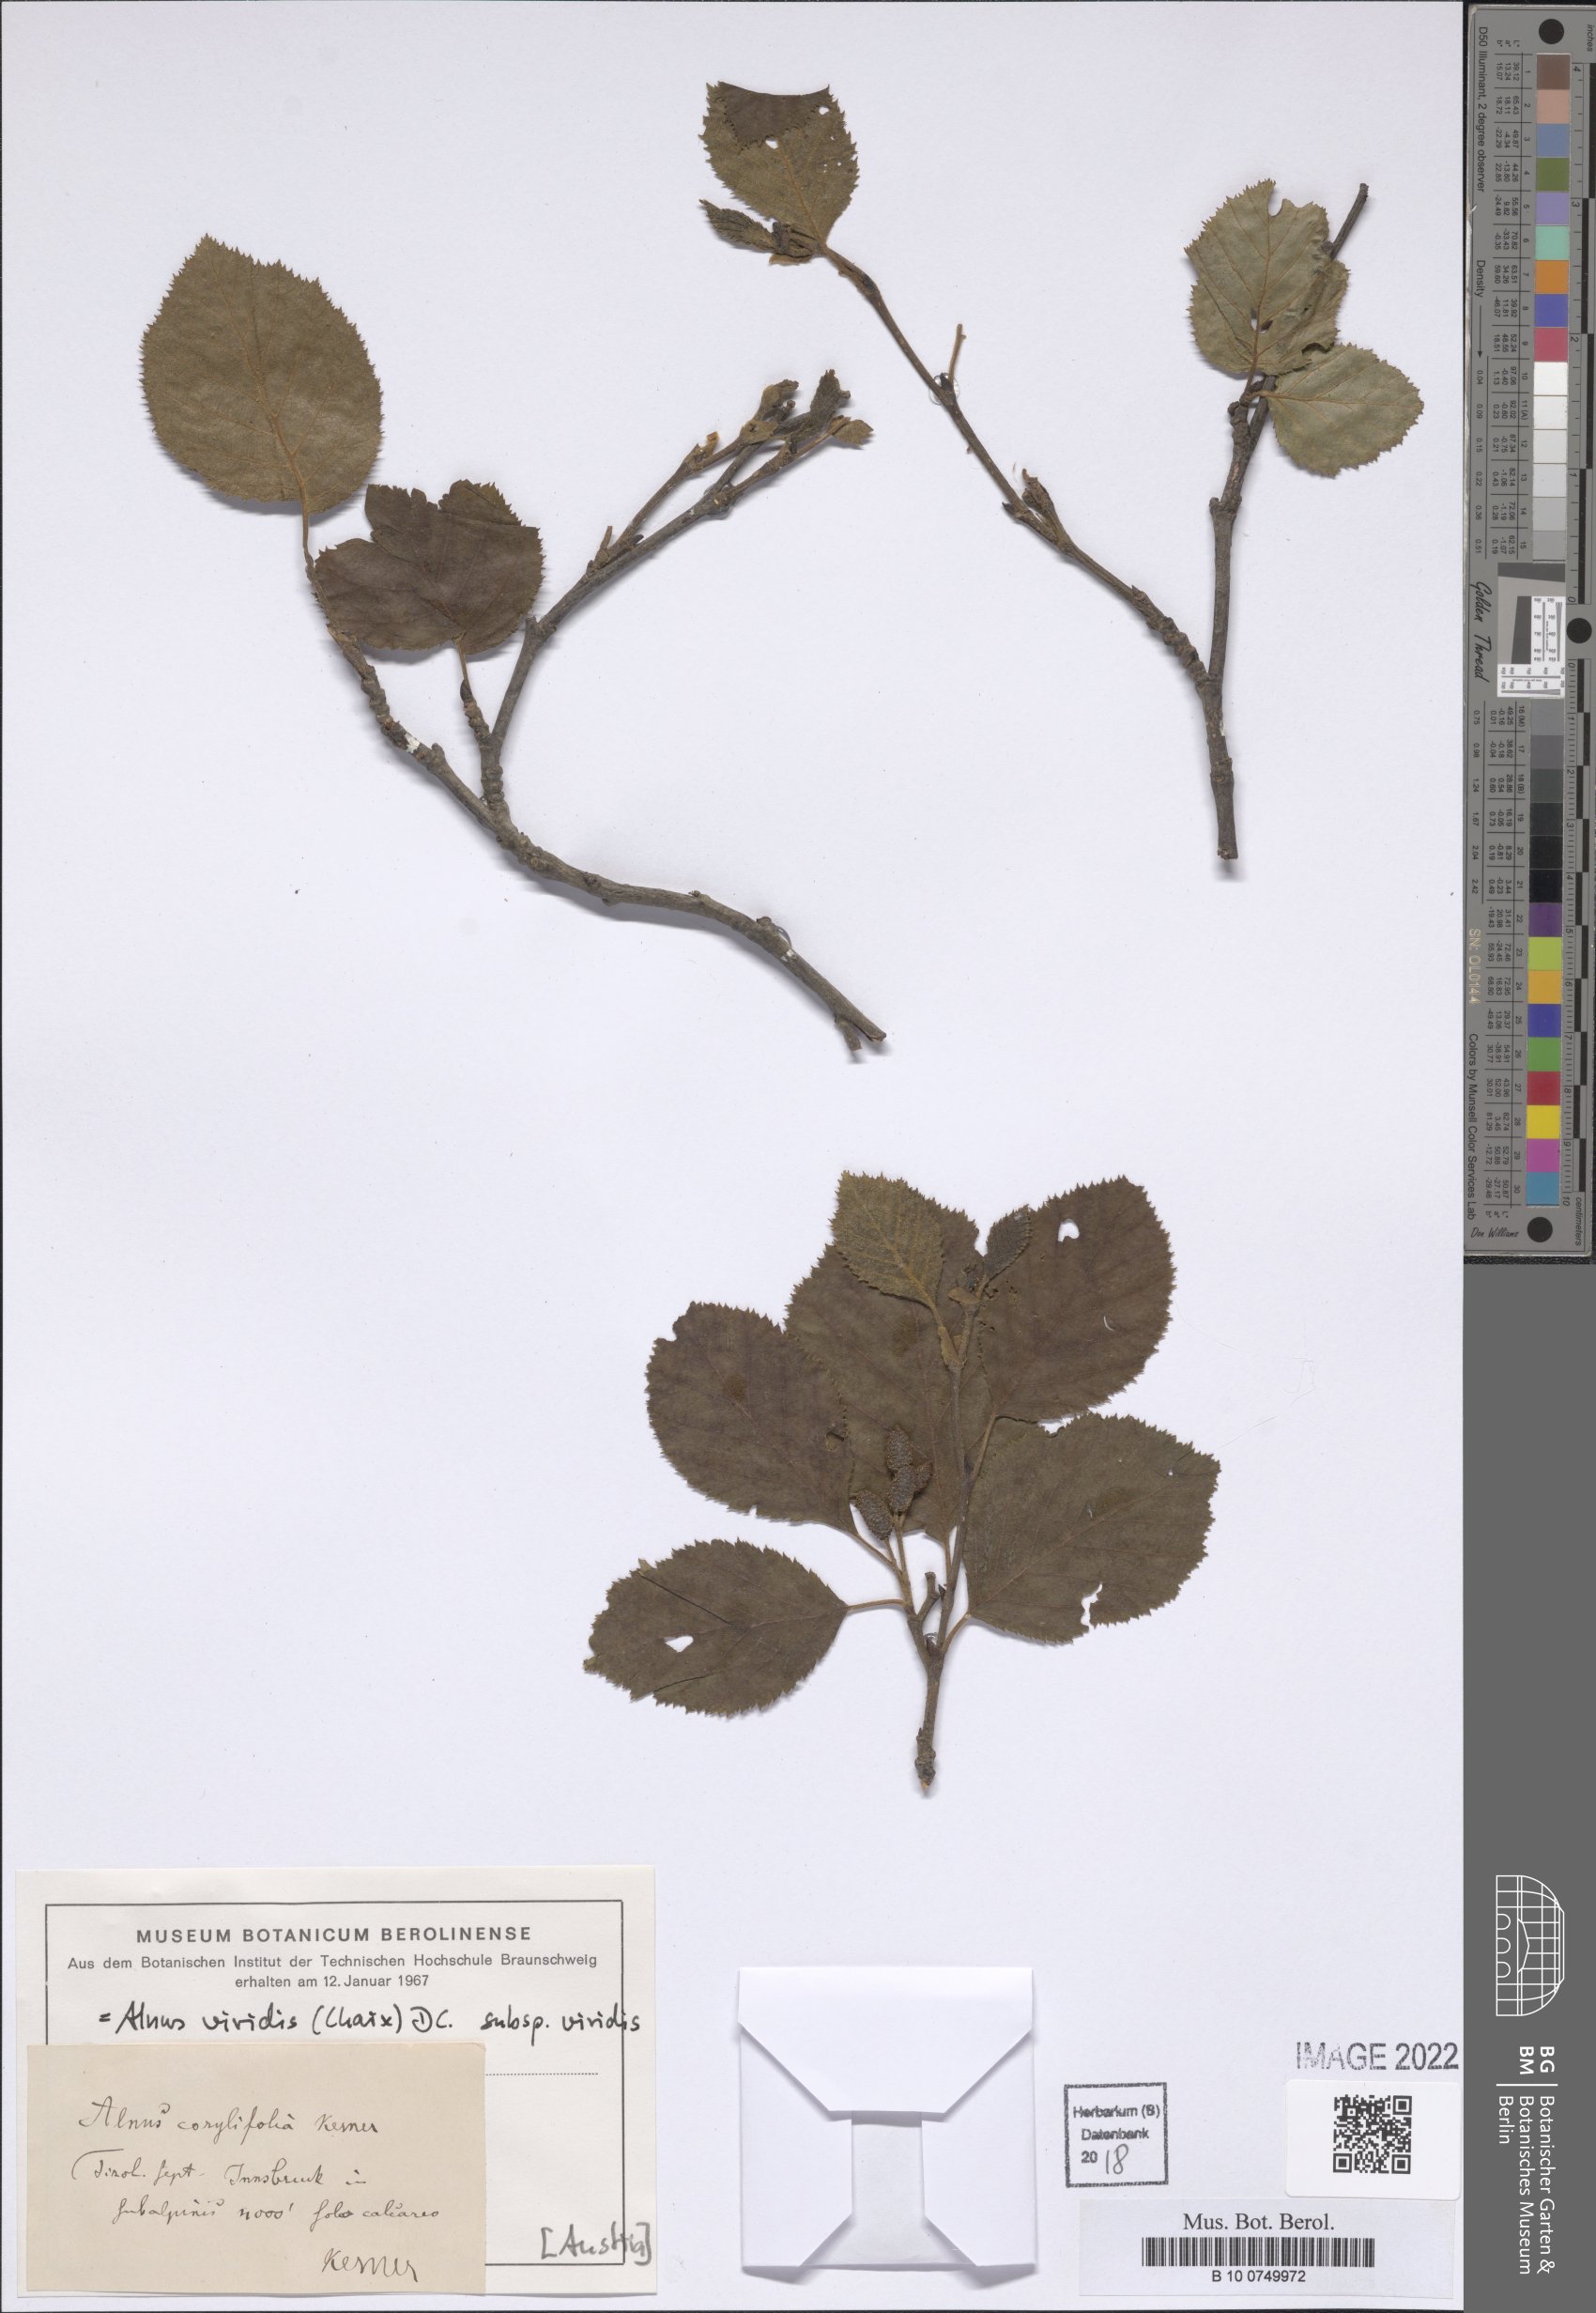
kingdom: Plantae
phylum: Tracheophyta
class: Magnoliopsida
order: Fagales
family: Betulaceae
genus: Alnus
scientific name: Alnus alnobetula
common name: Green alder
